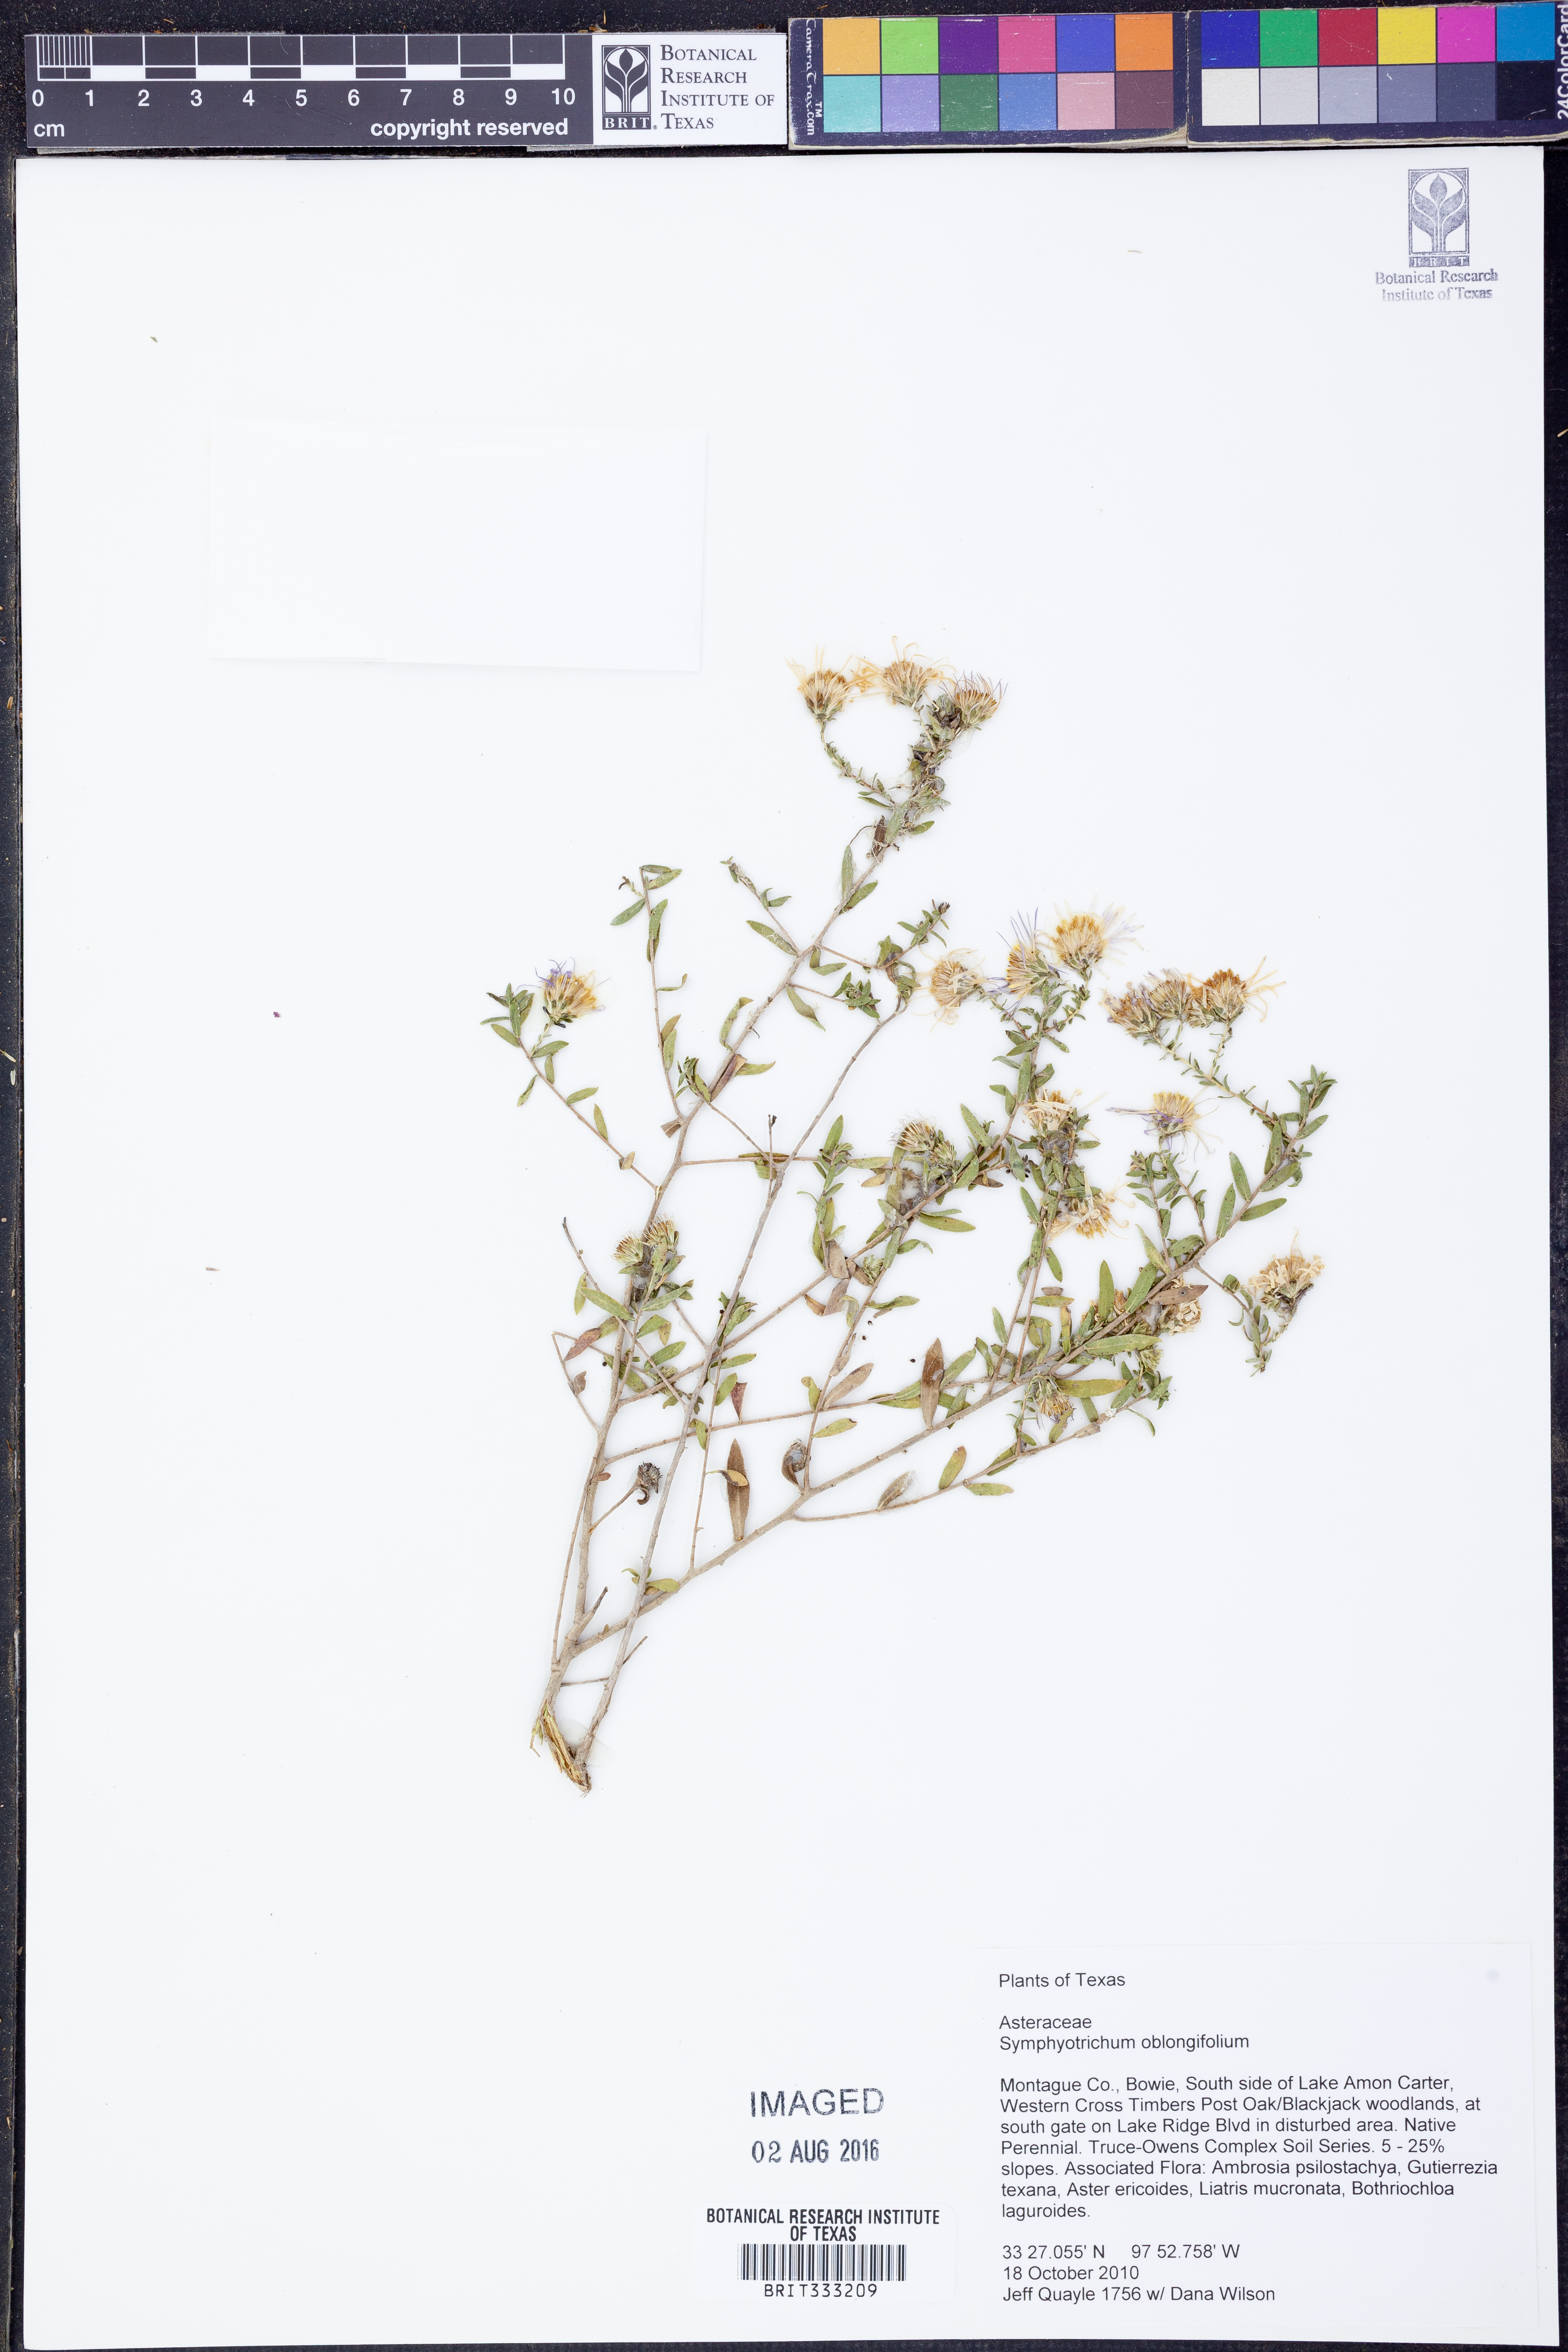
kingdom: Plantae
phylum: Tracheophyta
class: Magnoliopsida
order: Asterales
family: Asteraceae
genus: Symphyotrichum
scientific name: Symphyotrichum oblongifolium
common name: Aromatic aster
